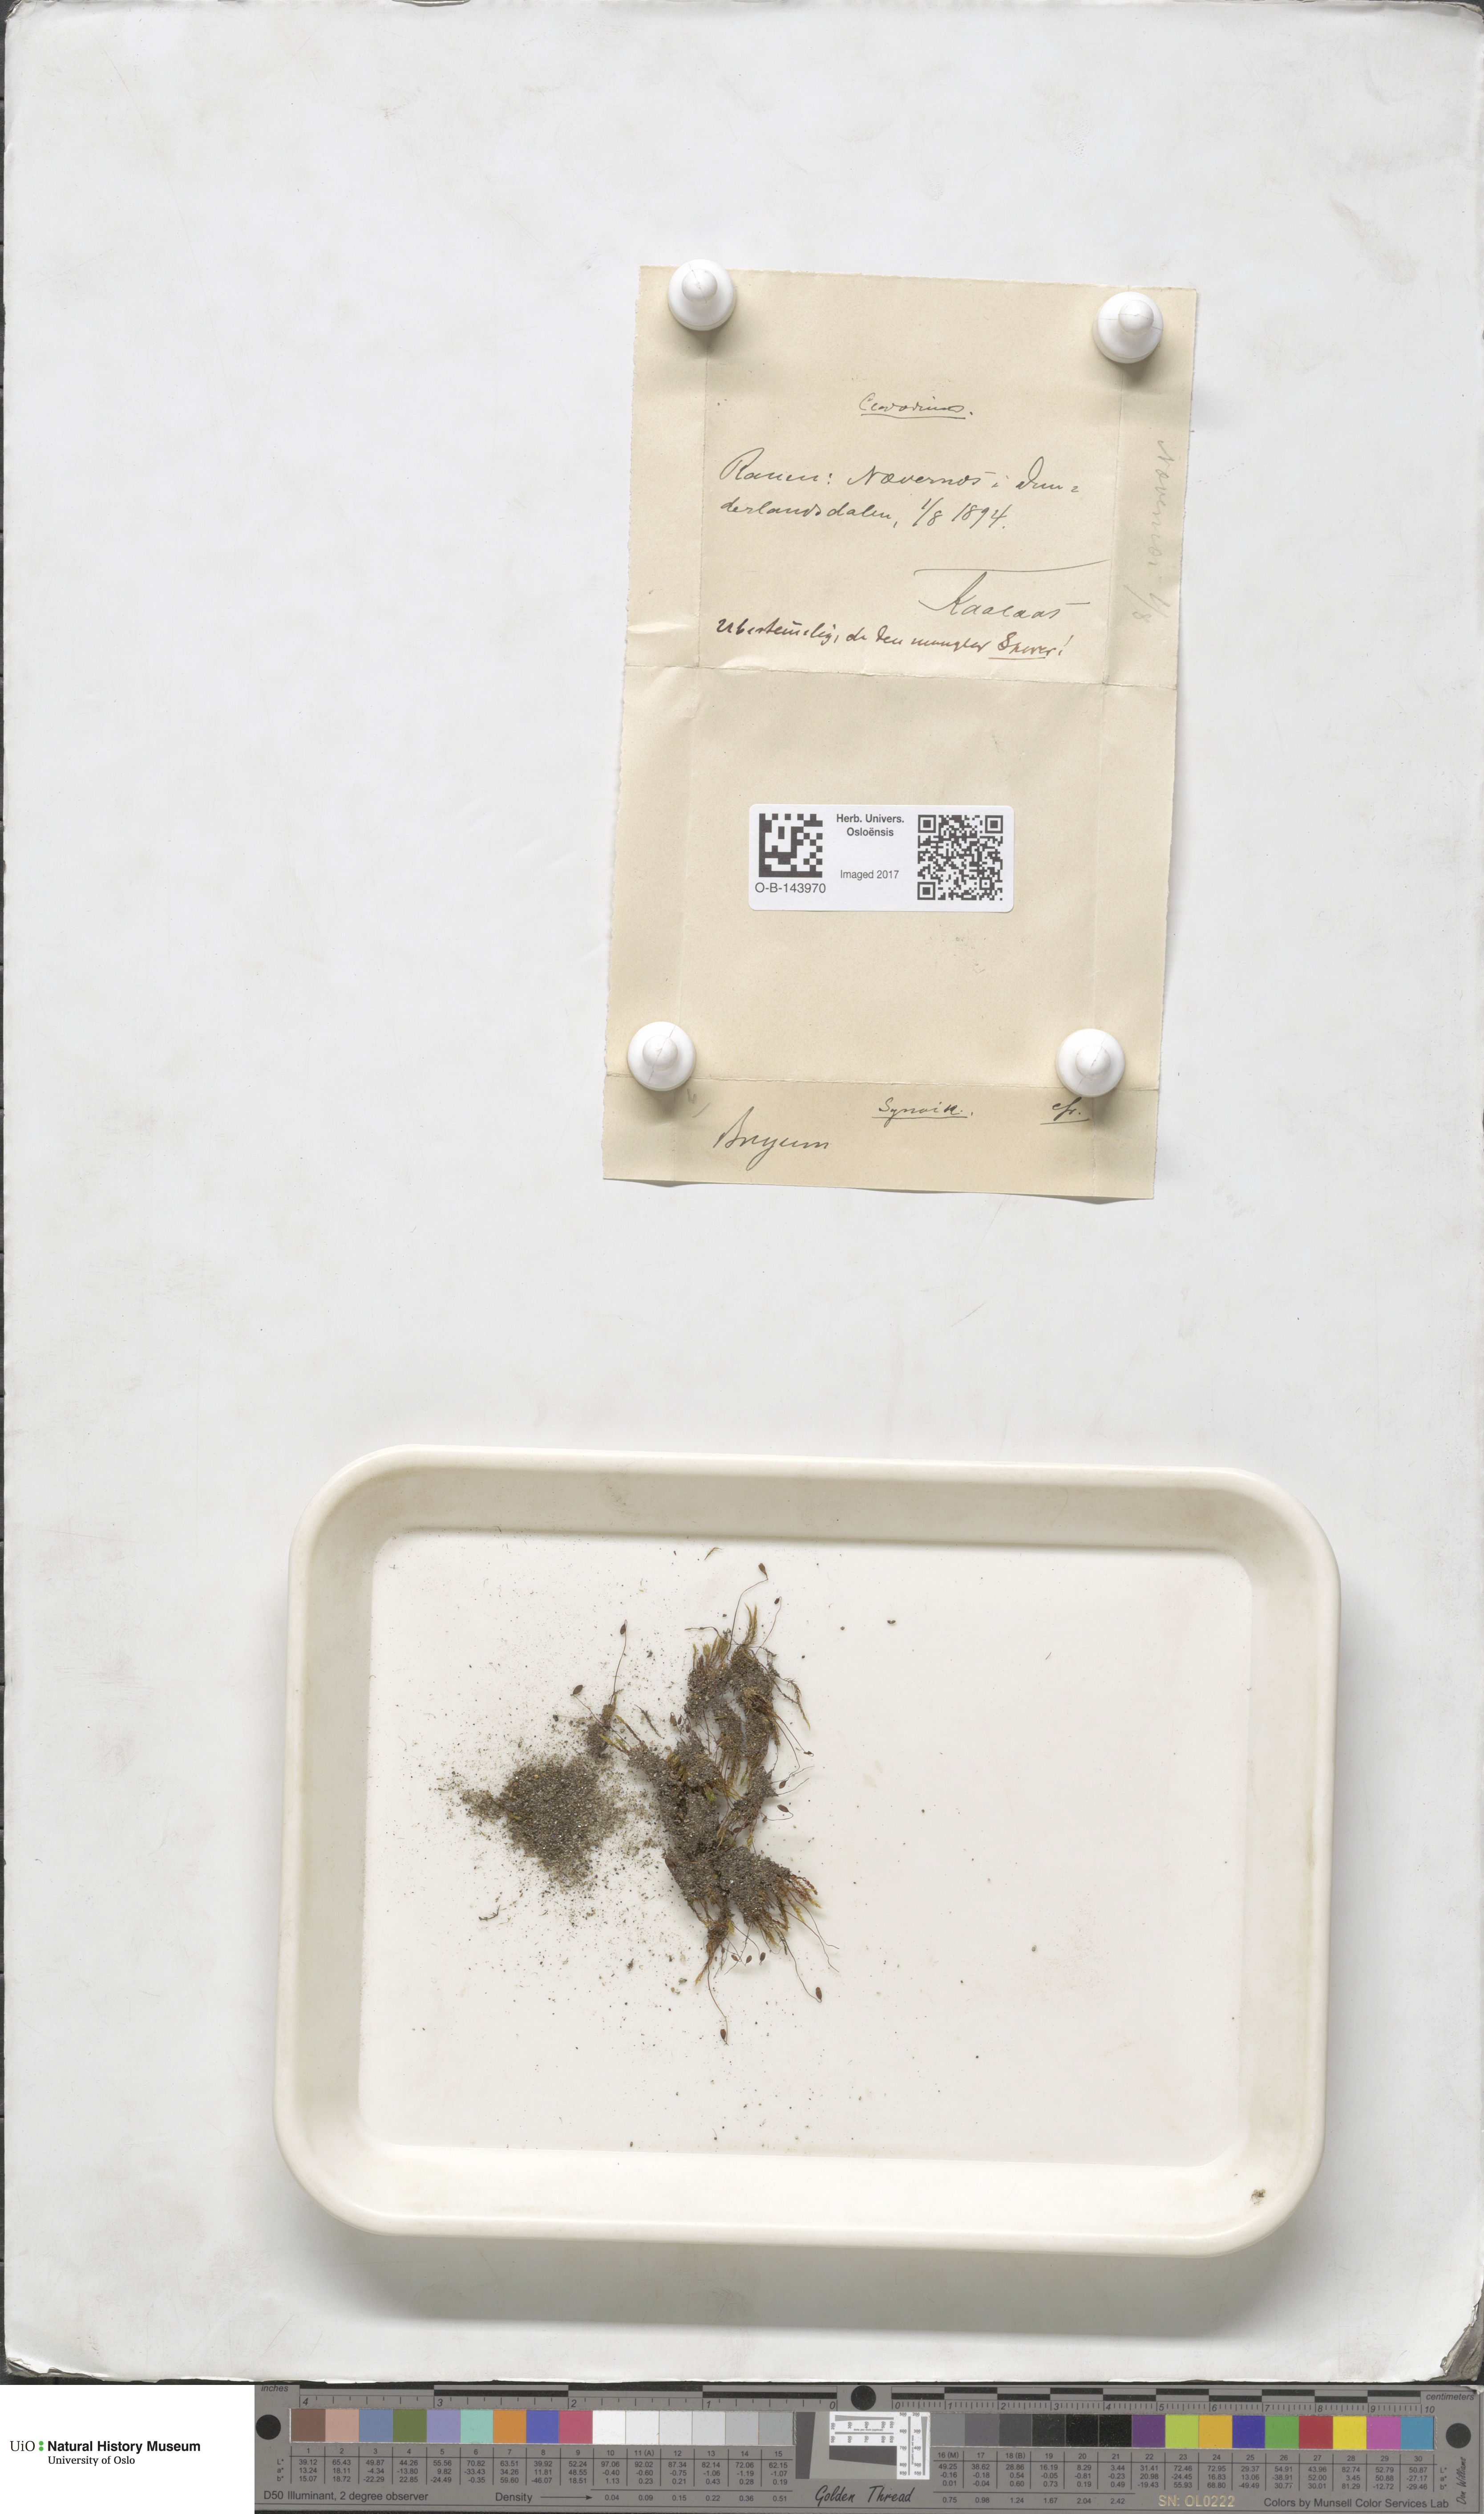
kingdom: Plantae
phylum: Bryophyta
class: Bryopsida
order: Bryales
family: Bryaceae
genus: Bryum
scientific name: Bryum
